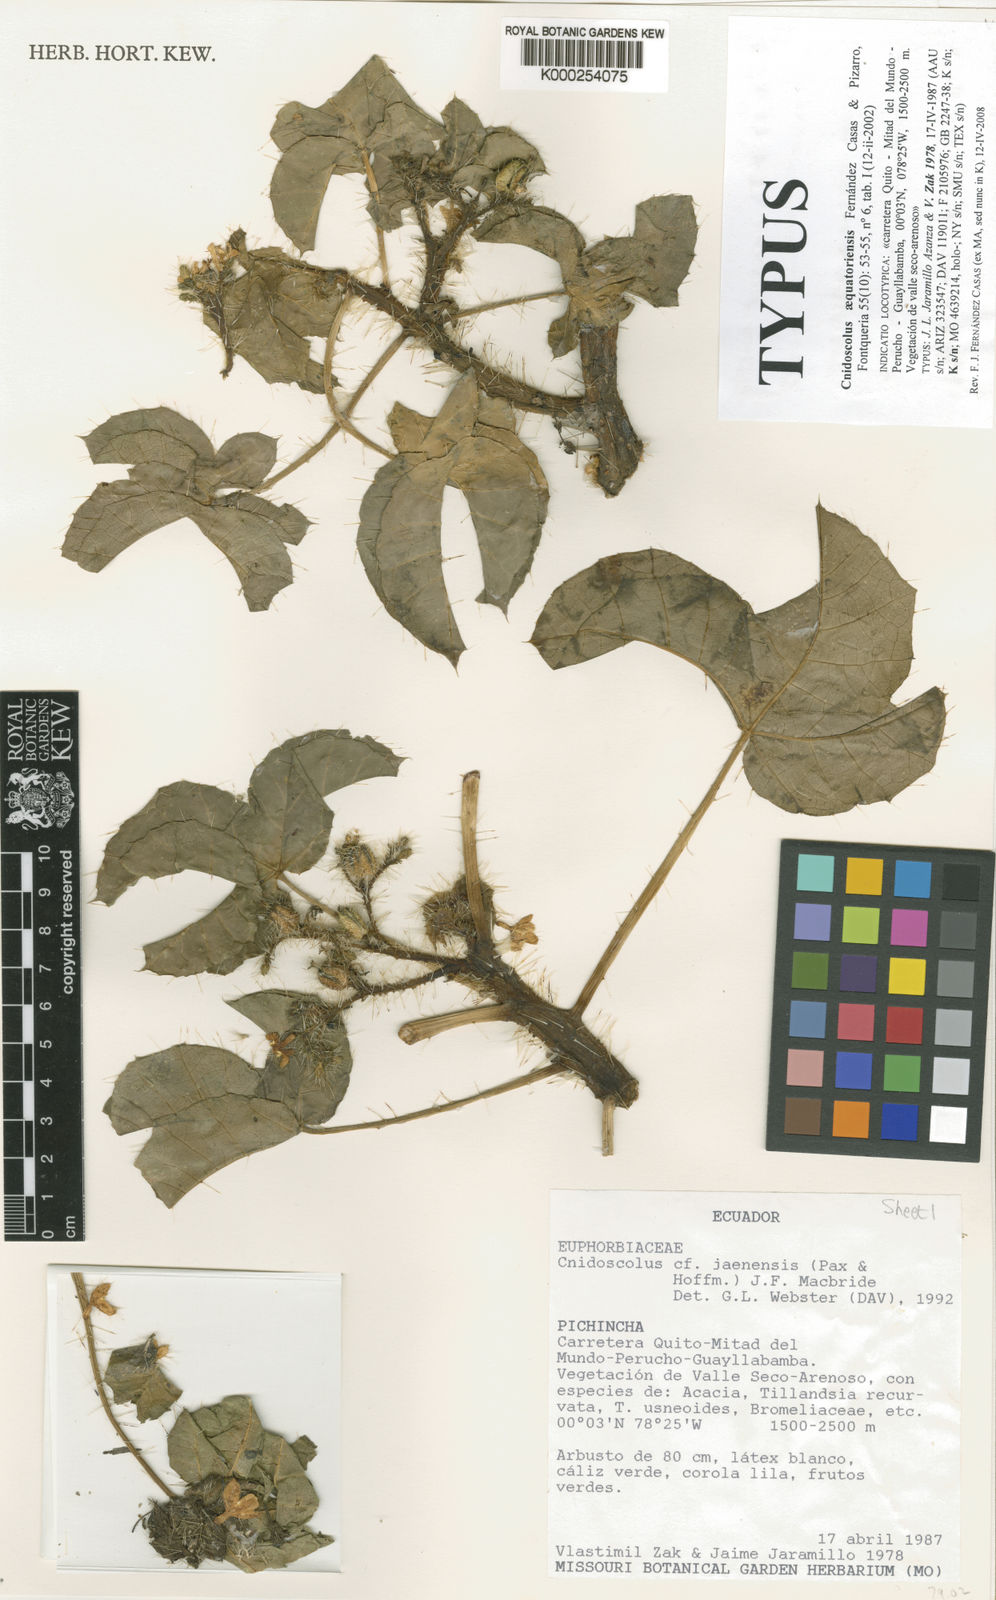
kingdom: Plantae
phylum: Tracheophyta
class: Magnoliopsida
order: Malpighiales
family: Euphorbiaceae
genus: Cnidoscolus
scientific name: Cnidoscolus aequatoriensis
